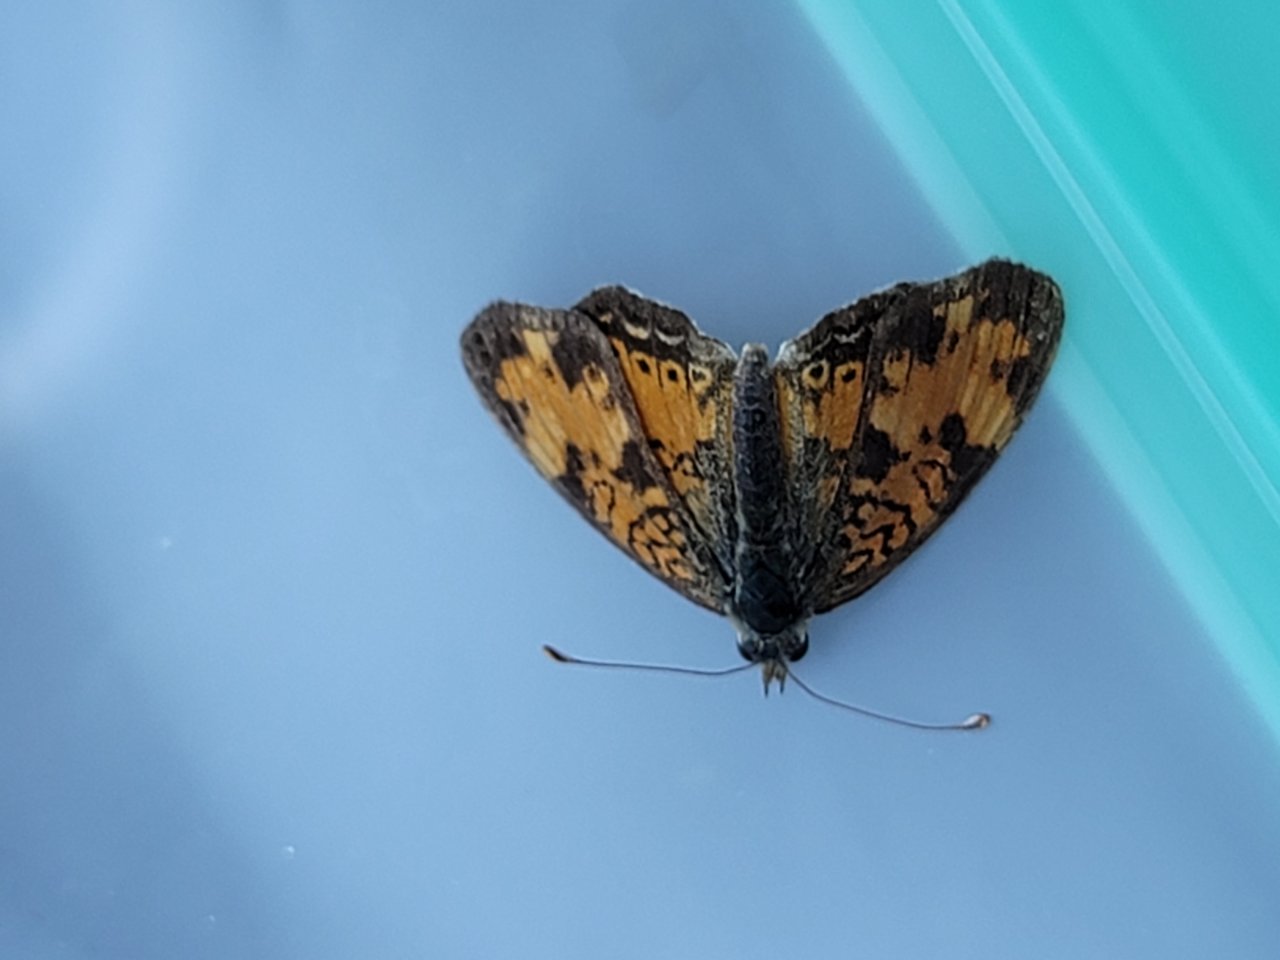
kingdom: Animalia
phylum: Arthropoda
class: Insecta
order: Lepidoptera
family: Nymphalidae
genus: Phyciodes
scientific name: Phyciodes tharos
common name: Northern Crescent
